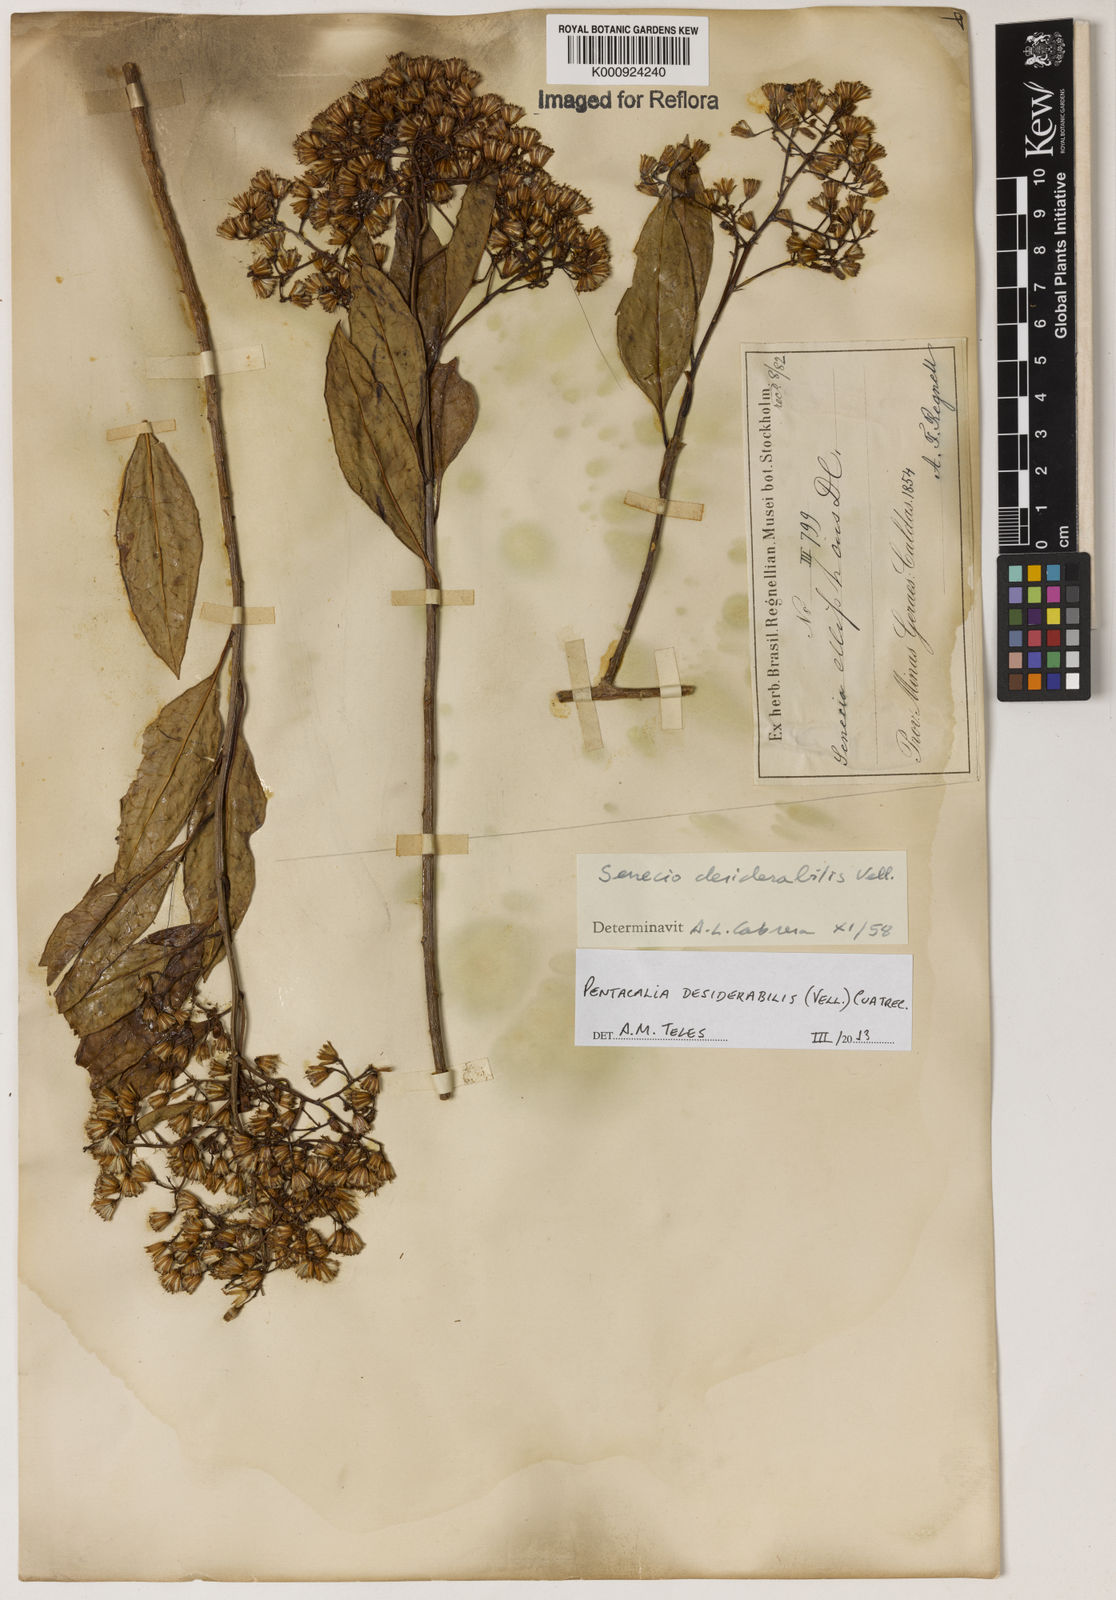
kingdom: Plantae
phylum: Tracheophyta
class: Magnoliopsida
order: Asterales
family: Asteraceae
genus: Pentacalia
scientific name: Pentacalia desiderabilis
